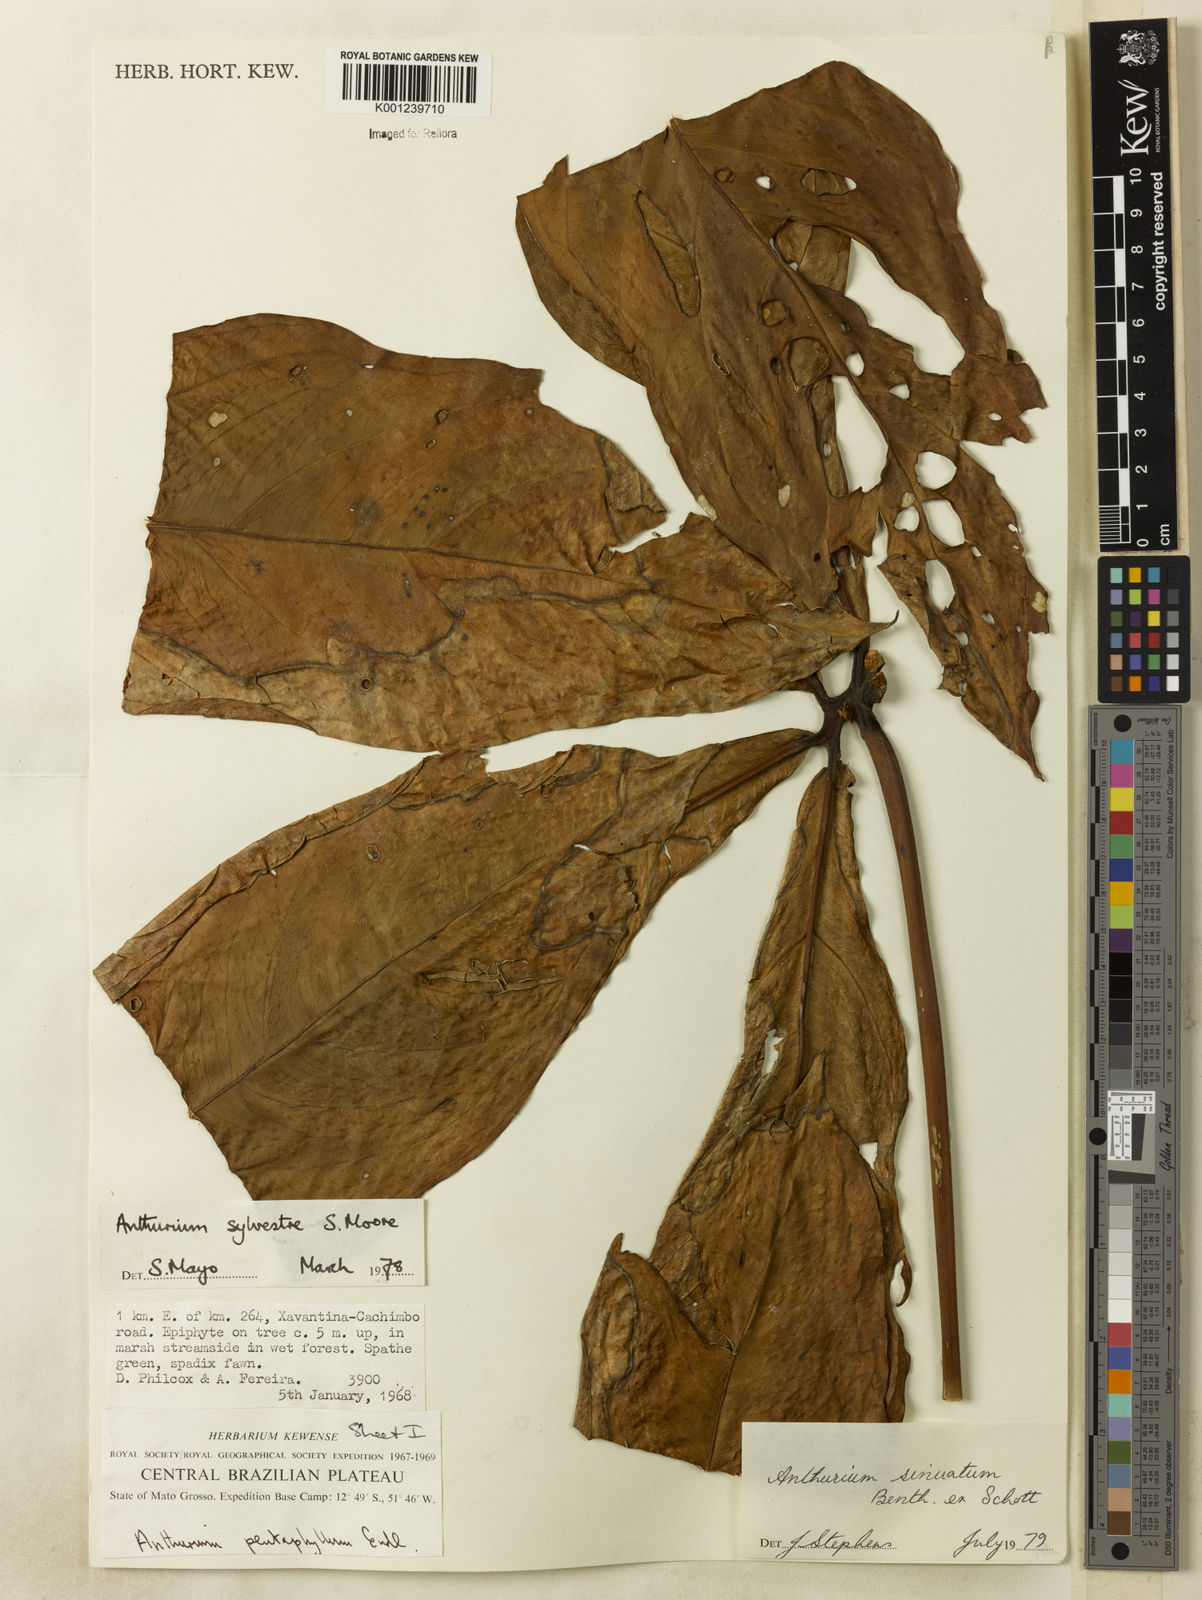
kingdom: Plantae
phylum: Tracheophyta
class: Liliopsida
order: Alismatales
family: Araceae
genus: Anthurium
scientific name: Anthurium sinuatum
